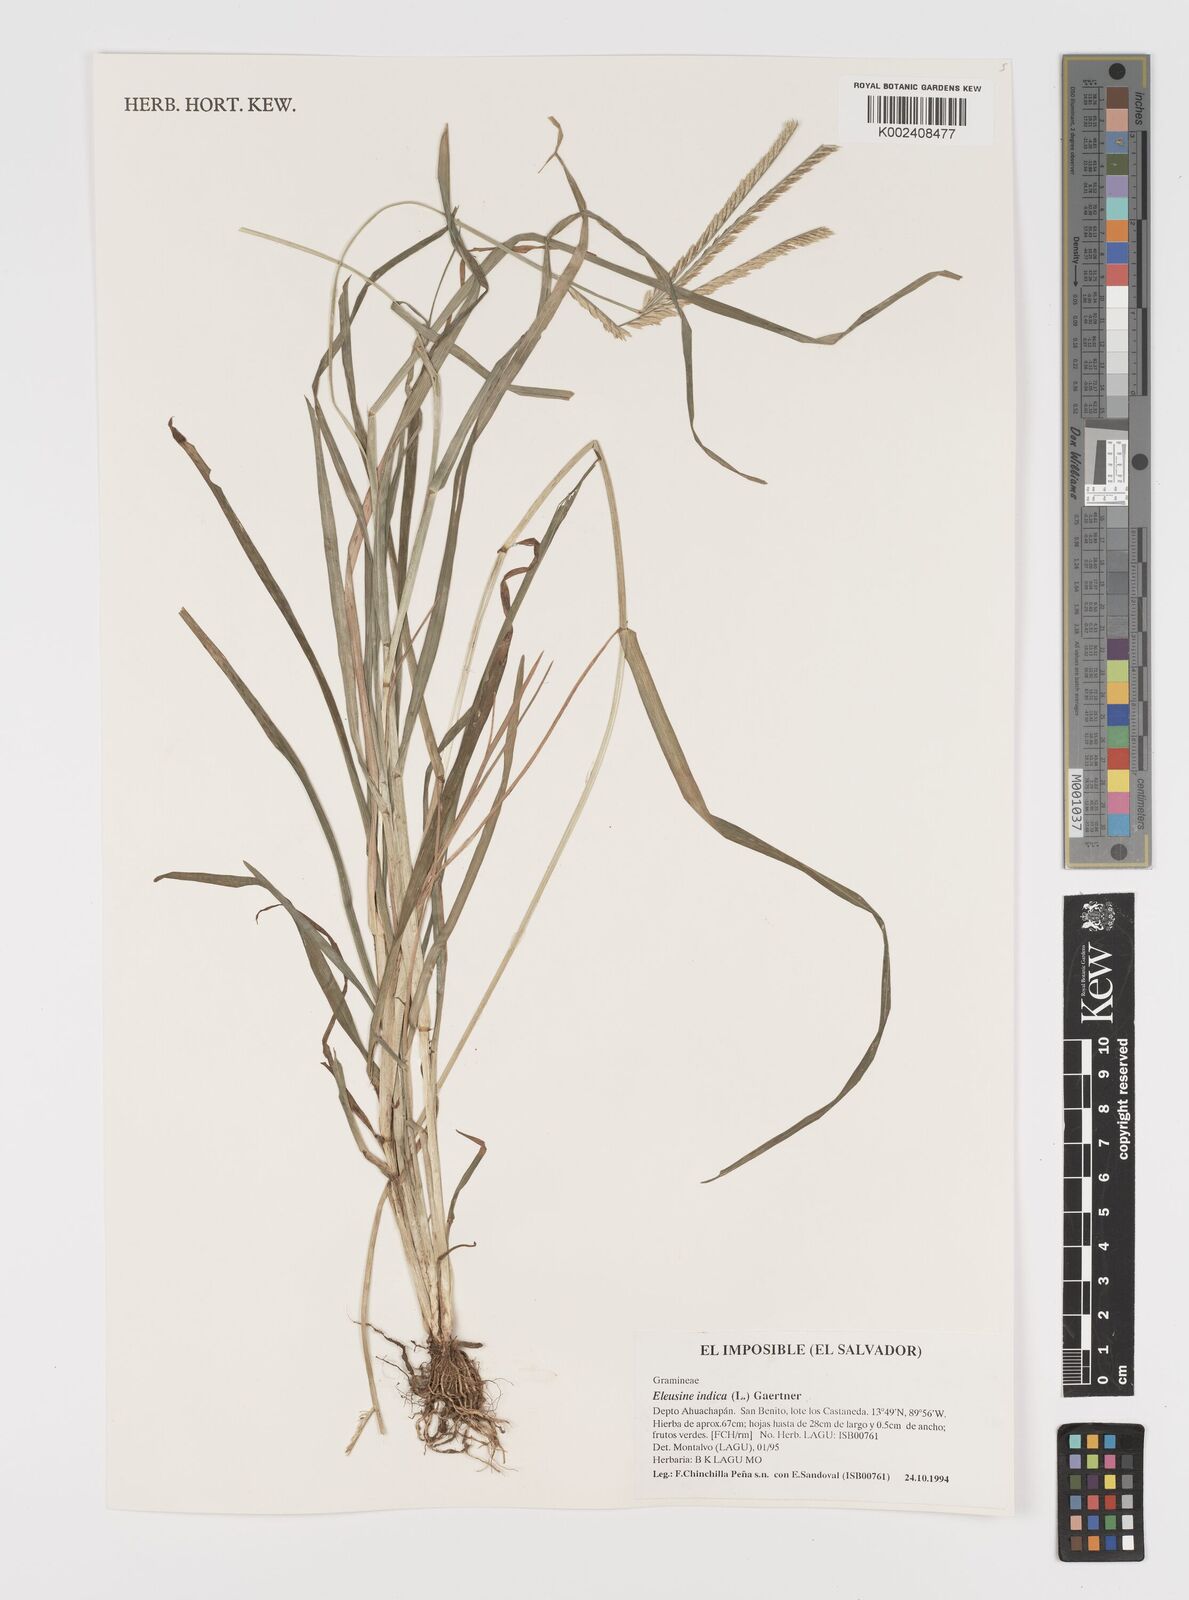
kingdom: Plantae
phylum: Tracheophyta
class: Liliopsida
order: Poales
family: Poaceae
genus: Eleusine
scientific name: Eleusine indica
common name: Yard-grass
